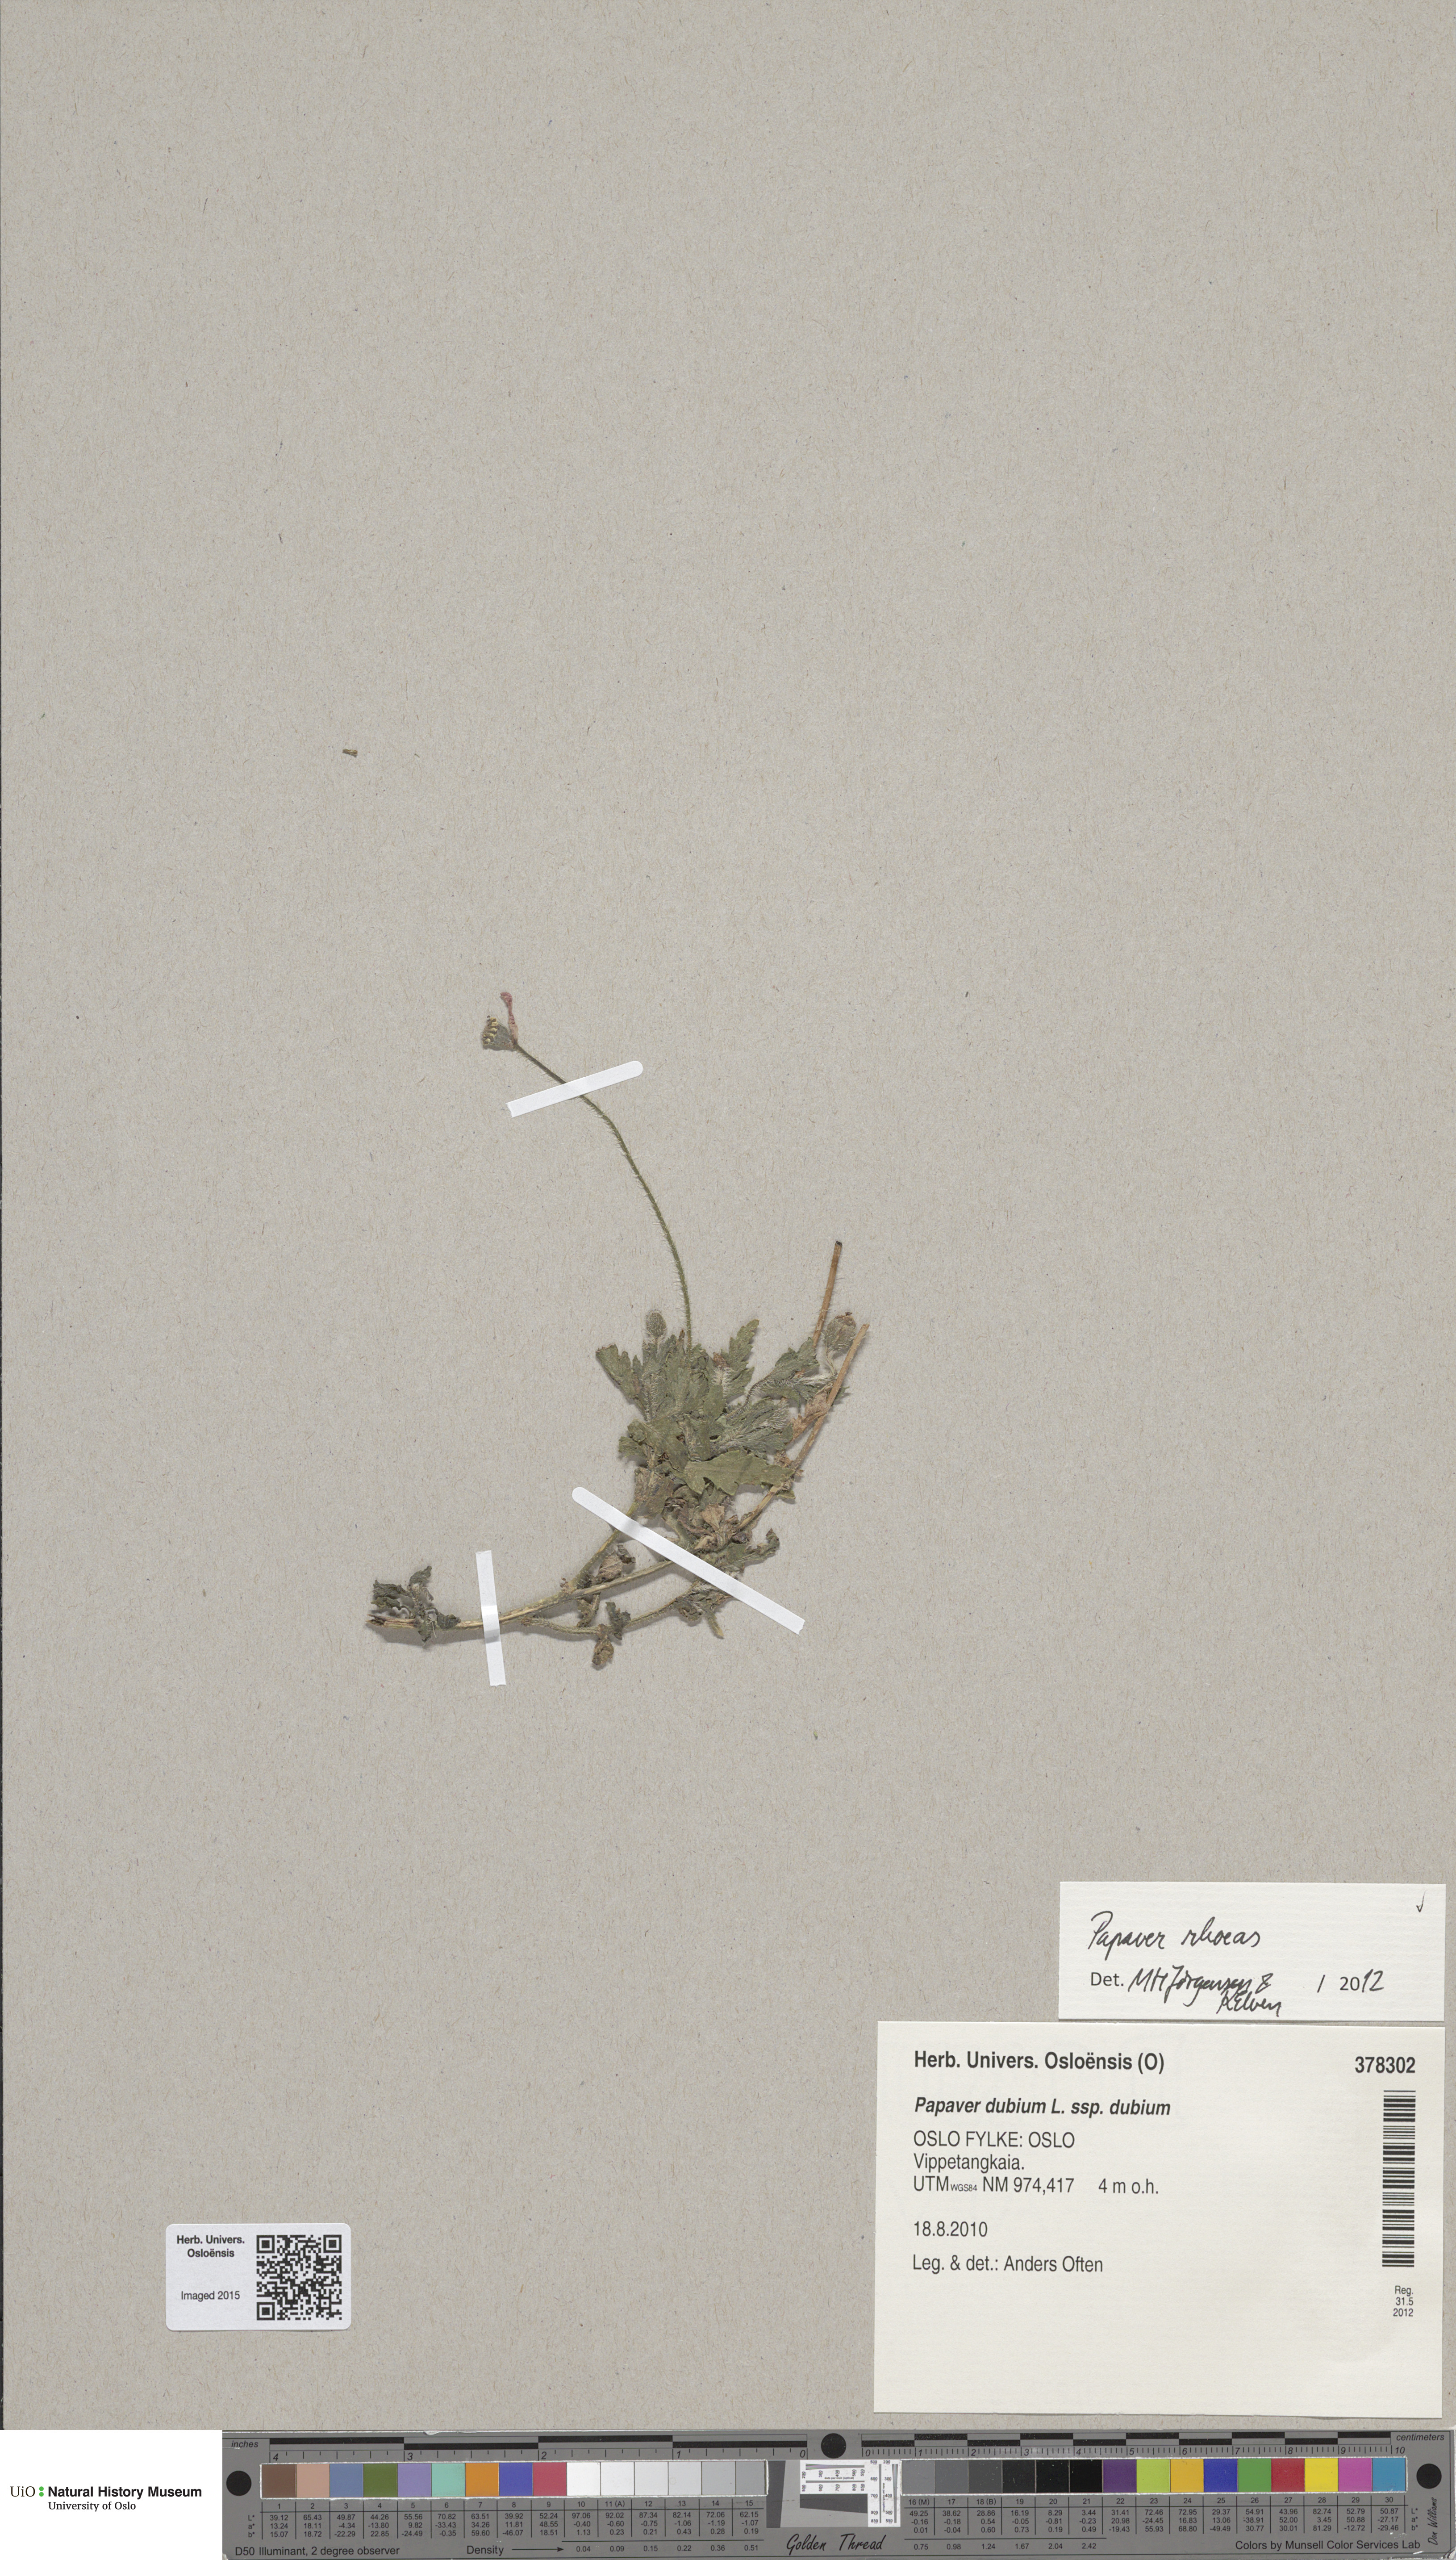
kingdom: Plantae
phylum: Tracheophyta
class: Magnoliopsida
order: Ranunculales
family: Papaveraceae
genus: Papaver
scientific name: Papaver rhoeas
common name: Corn poppy
